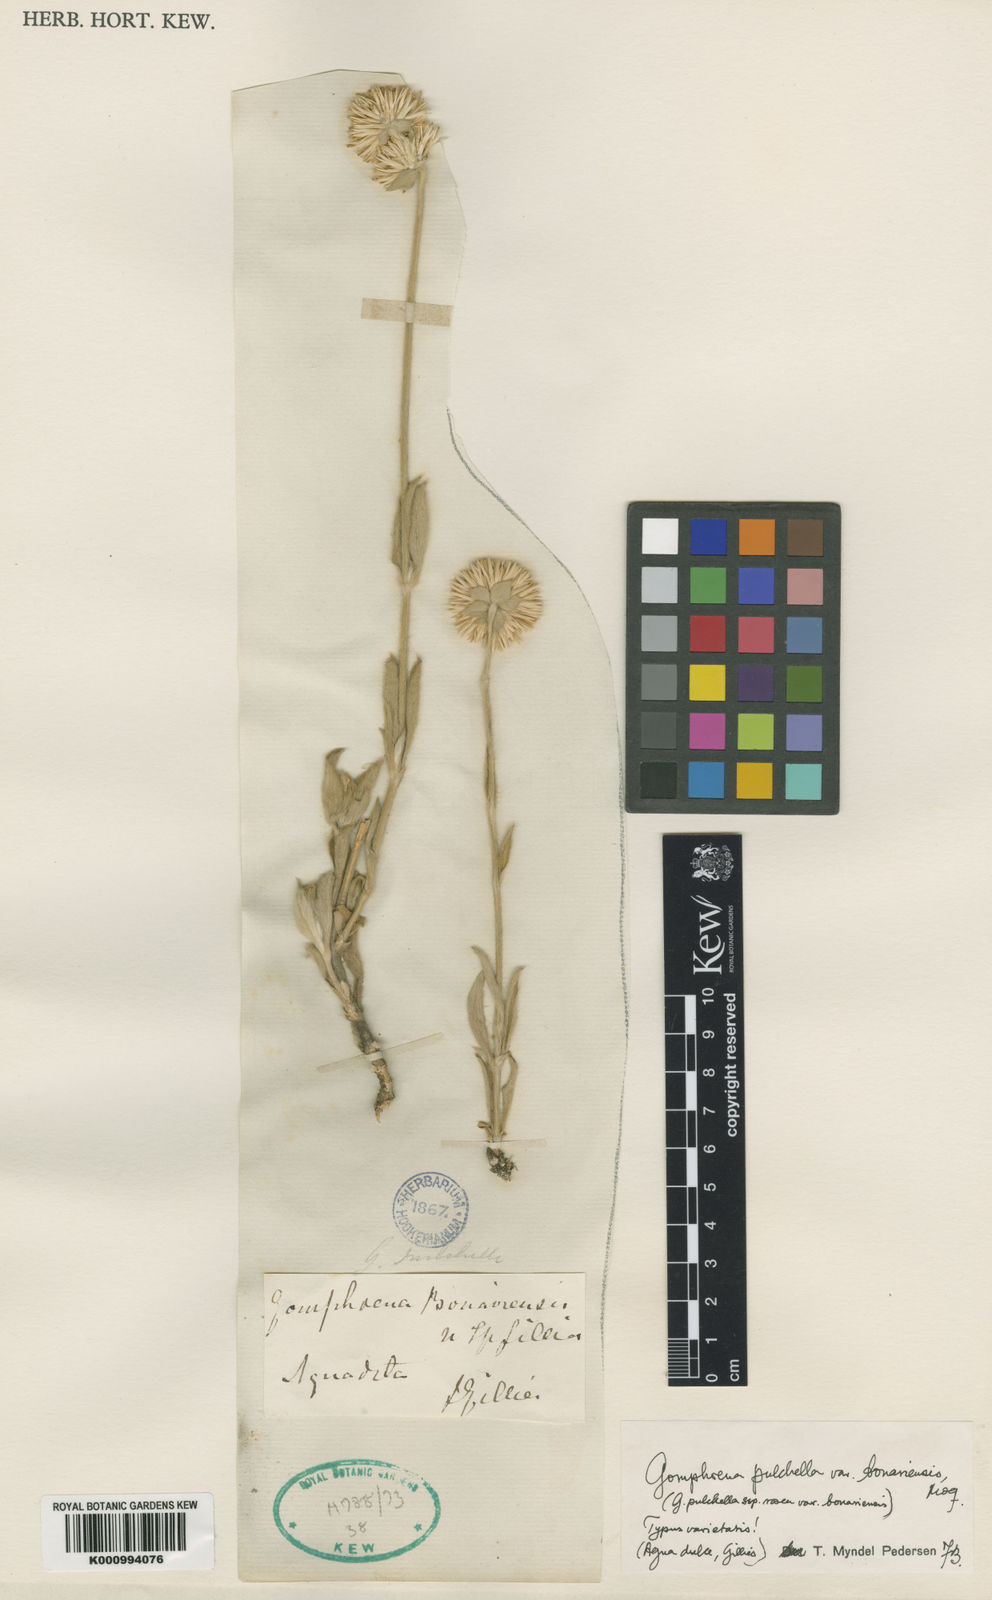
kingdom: Plantae
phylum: Tracheophyta
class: Magnoliopsida
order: Caryophyllales
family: Amaranthaceae
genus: Gomphrena
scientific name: Gomphrena pulchella
